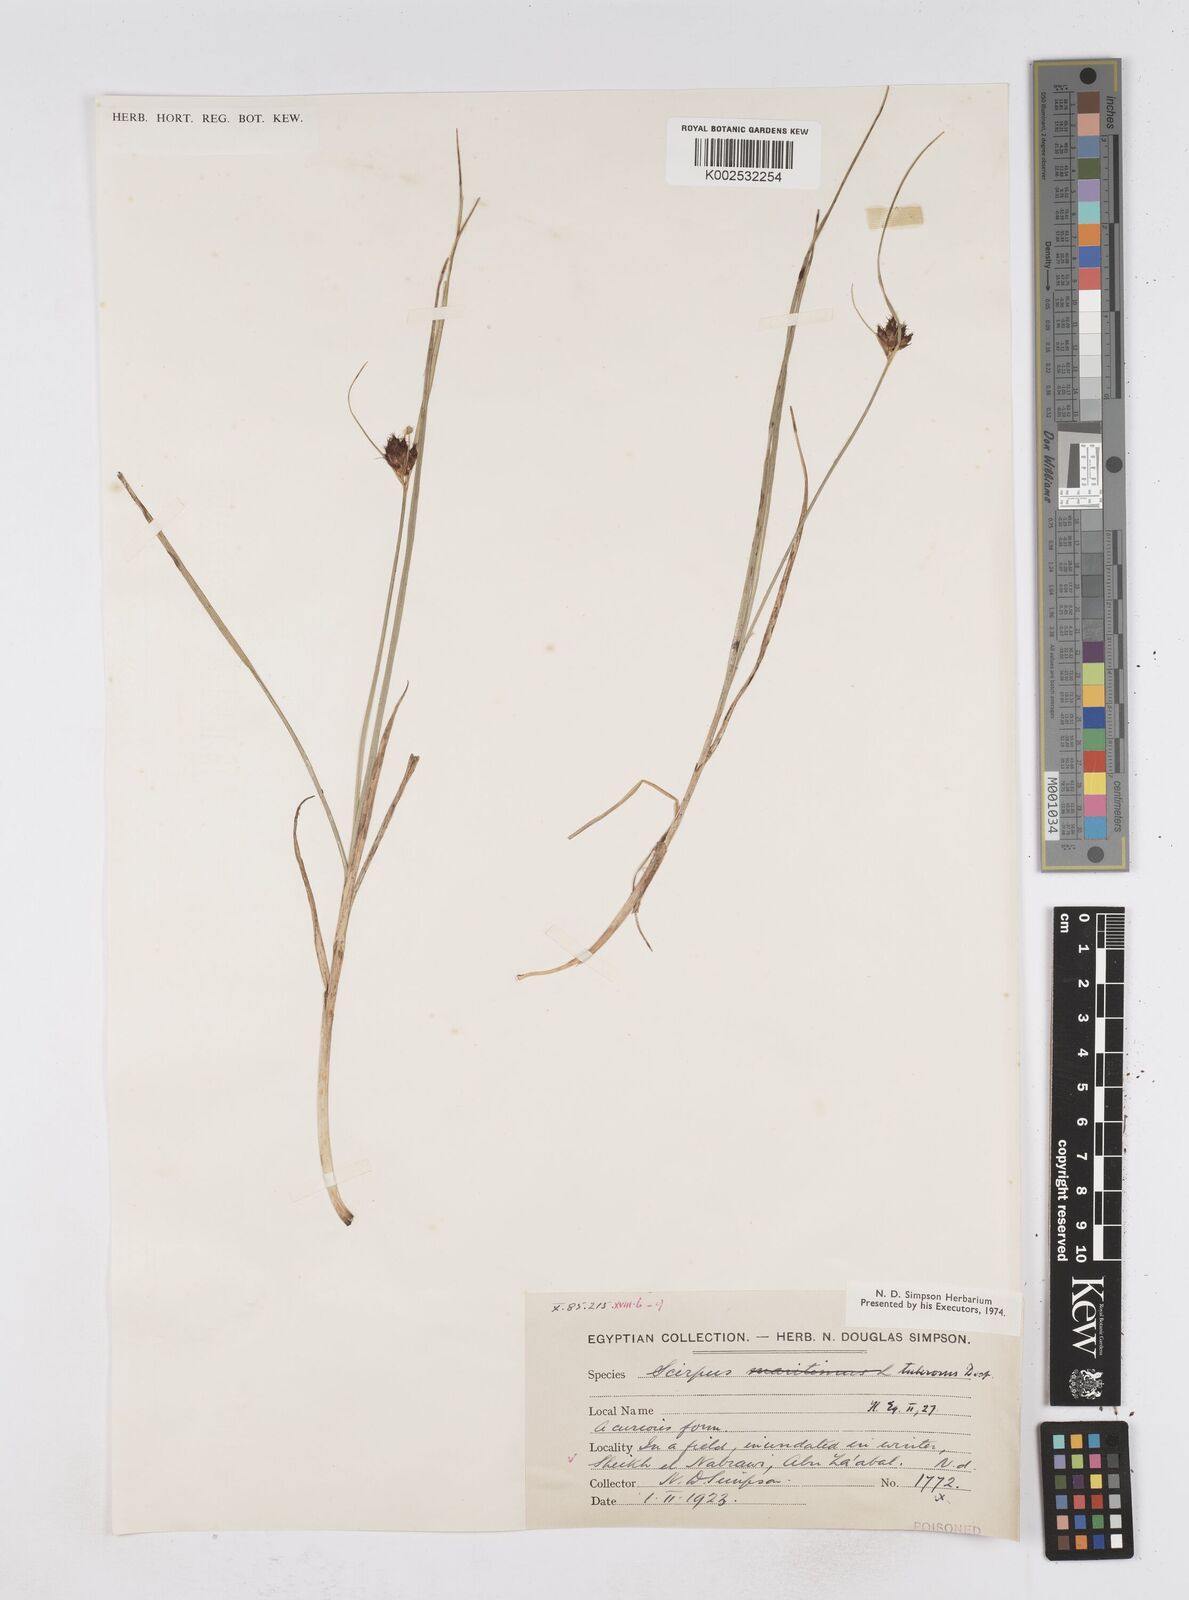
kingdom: Plantae
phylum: Tracheophyta
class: Liliopsida
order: Poales
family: Cyperaceae
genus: Bolboschoenus
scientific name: Bolboschoenus maritimus
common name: Sea club-rush
